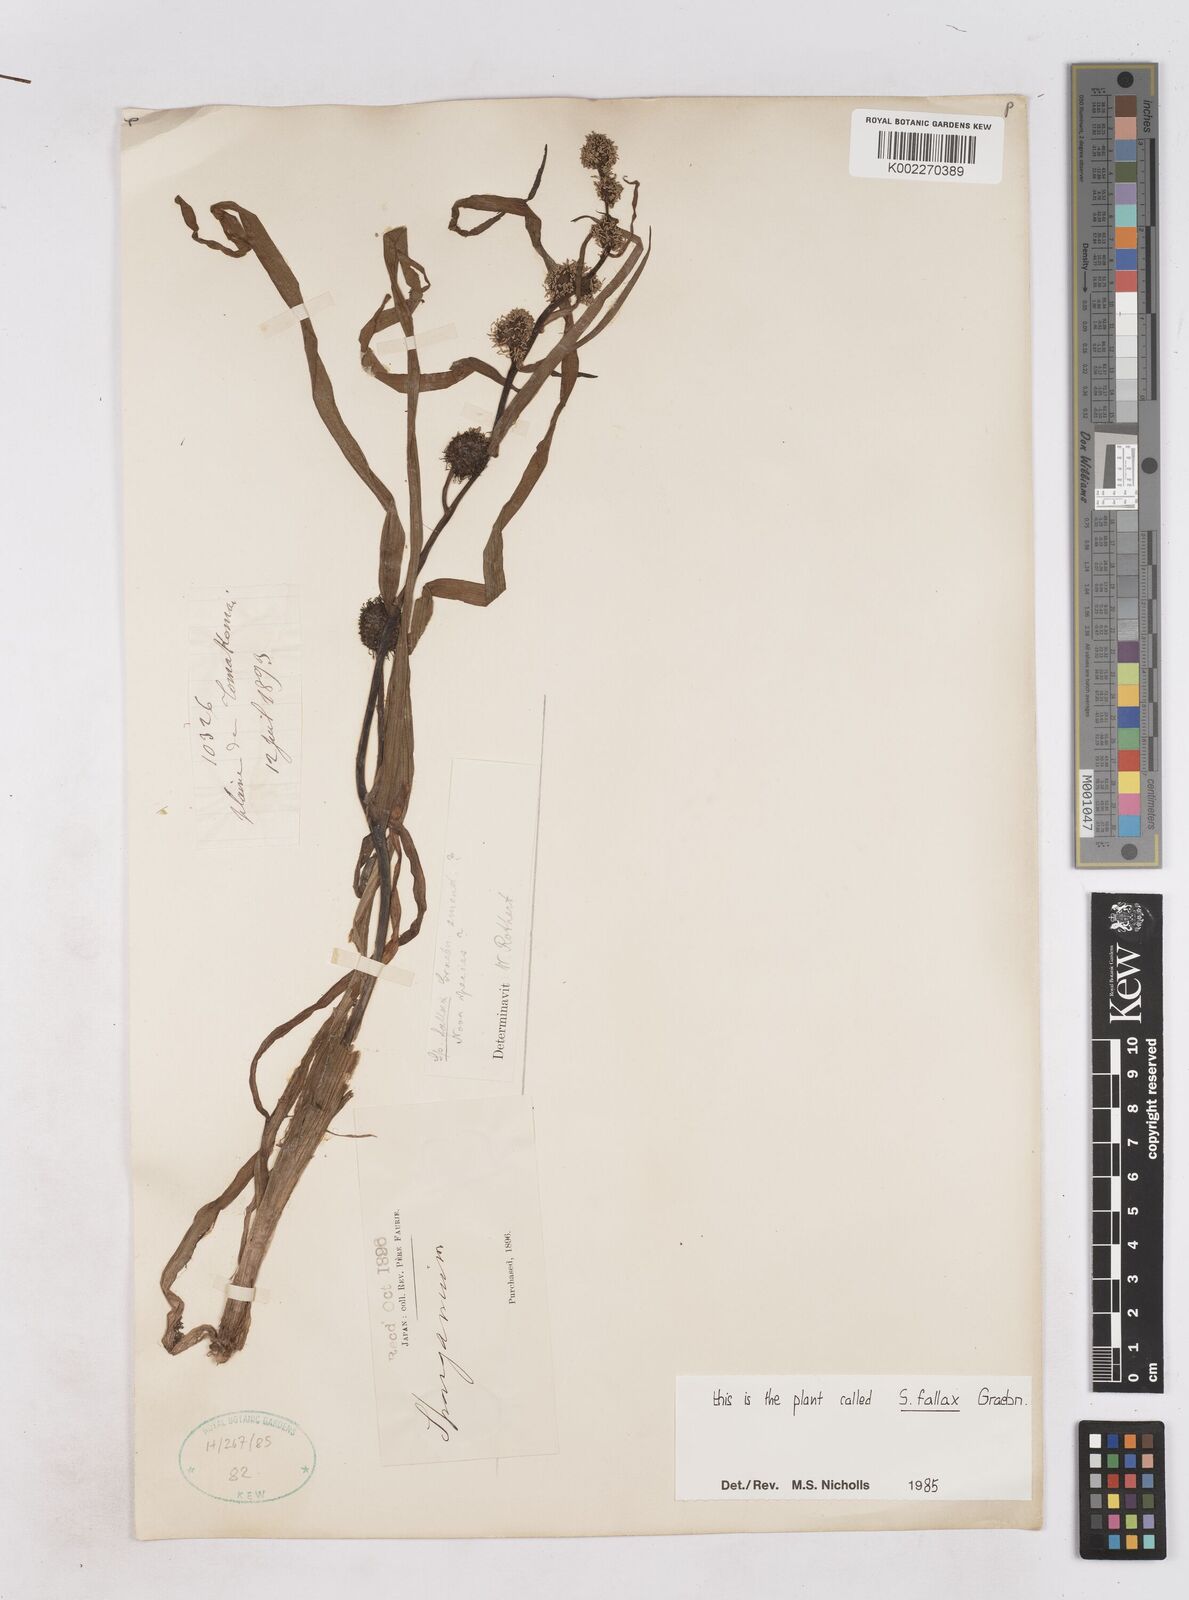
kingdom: Plantae
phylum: Tracheophyta
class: Liliopsida
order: Poales
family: Typhaceae
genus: Sparganium
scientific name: Sparganium fallax
